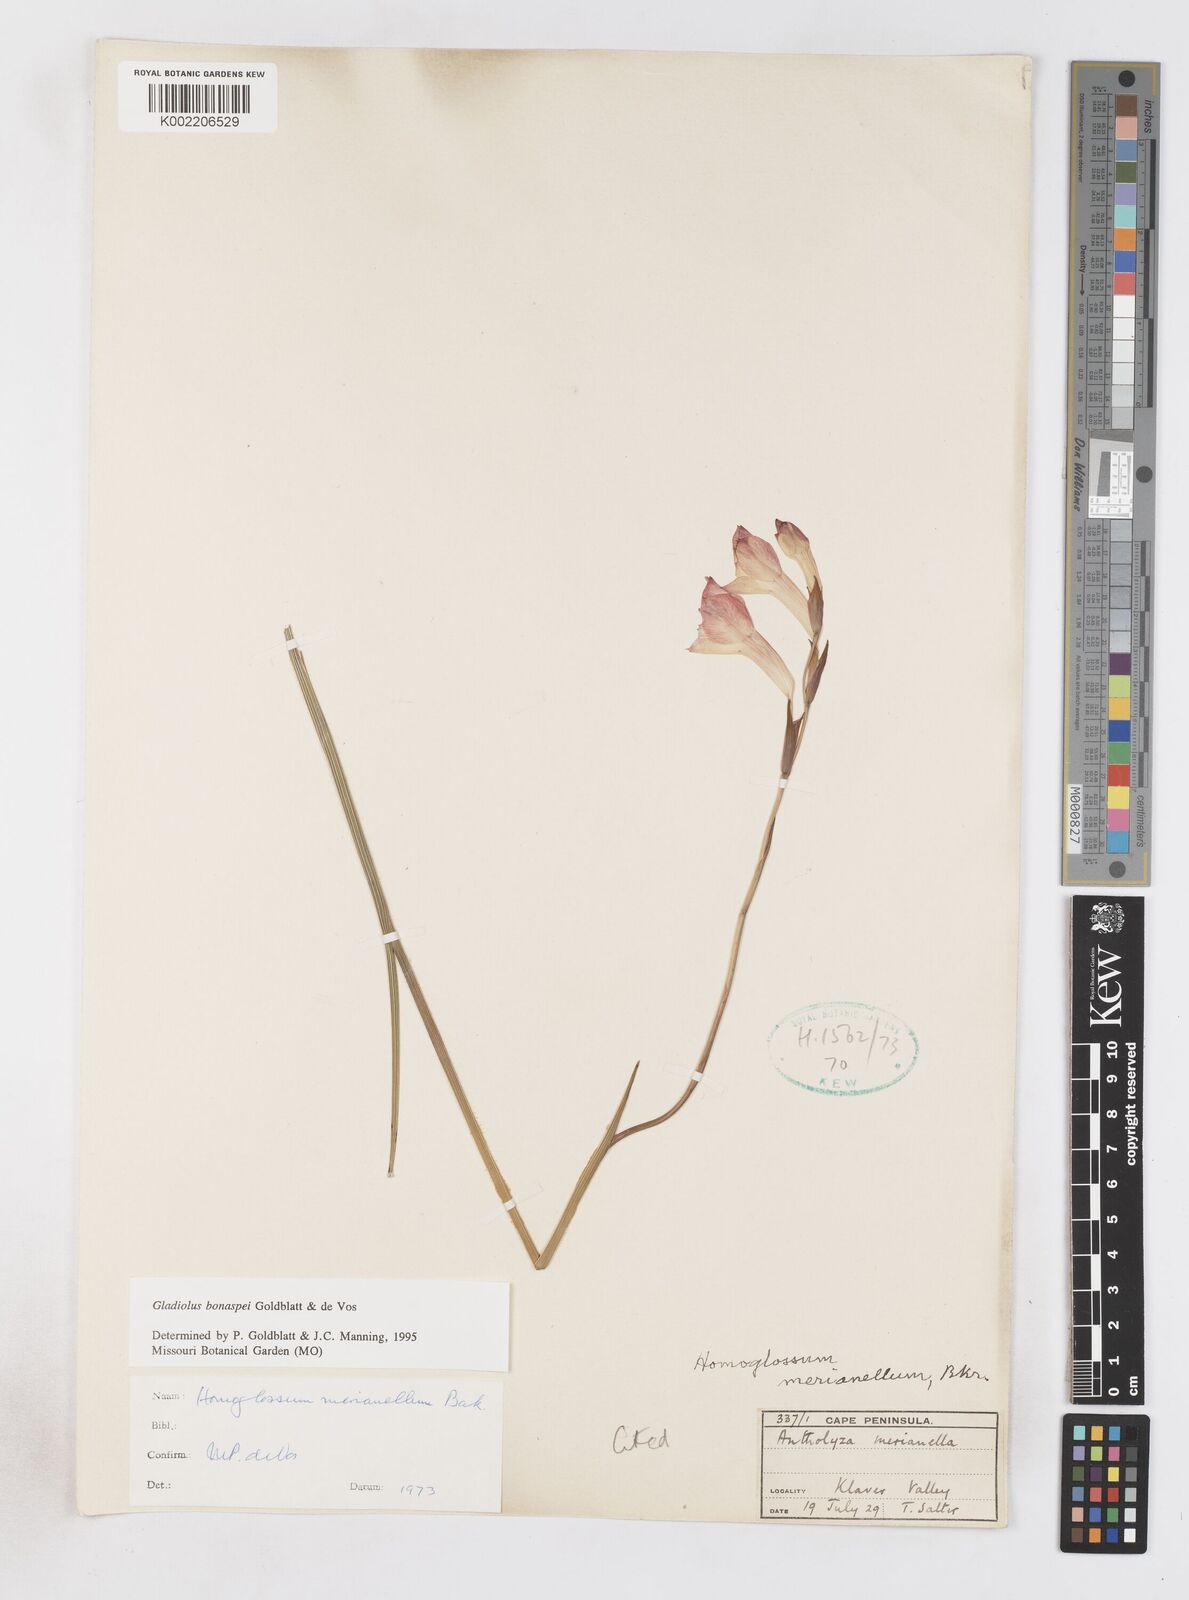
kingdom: Plantae
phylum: Tracheophyta
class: Liliopsida
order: Asparagales
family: Iridaceae
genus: Gladiolus
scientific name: Gladiolus merianellus
